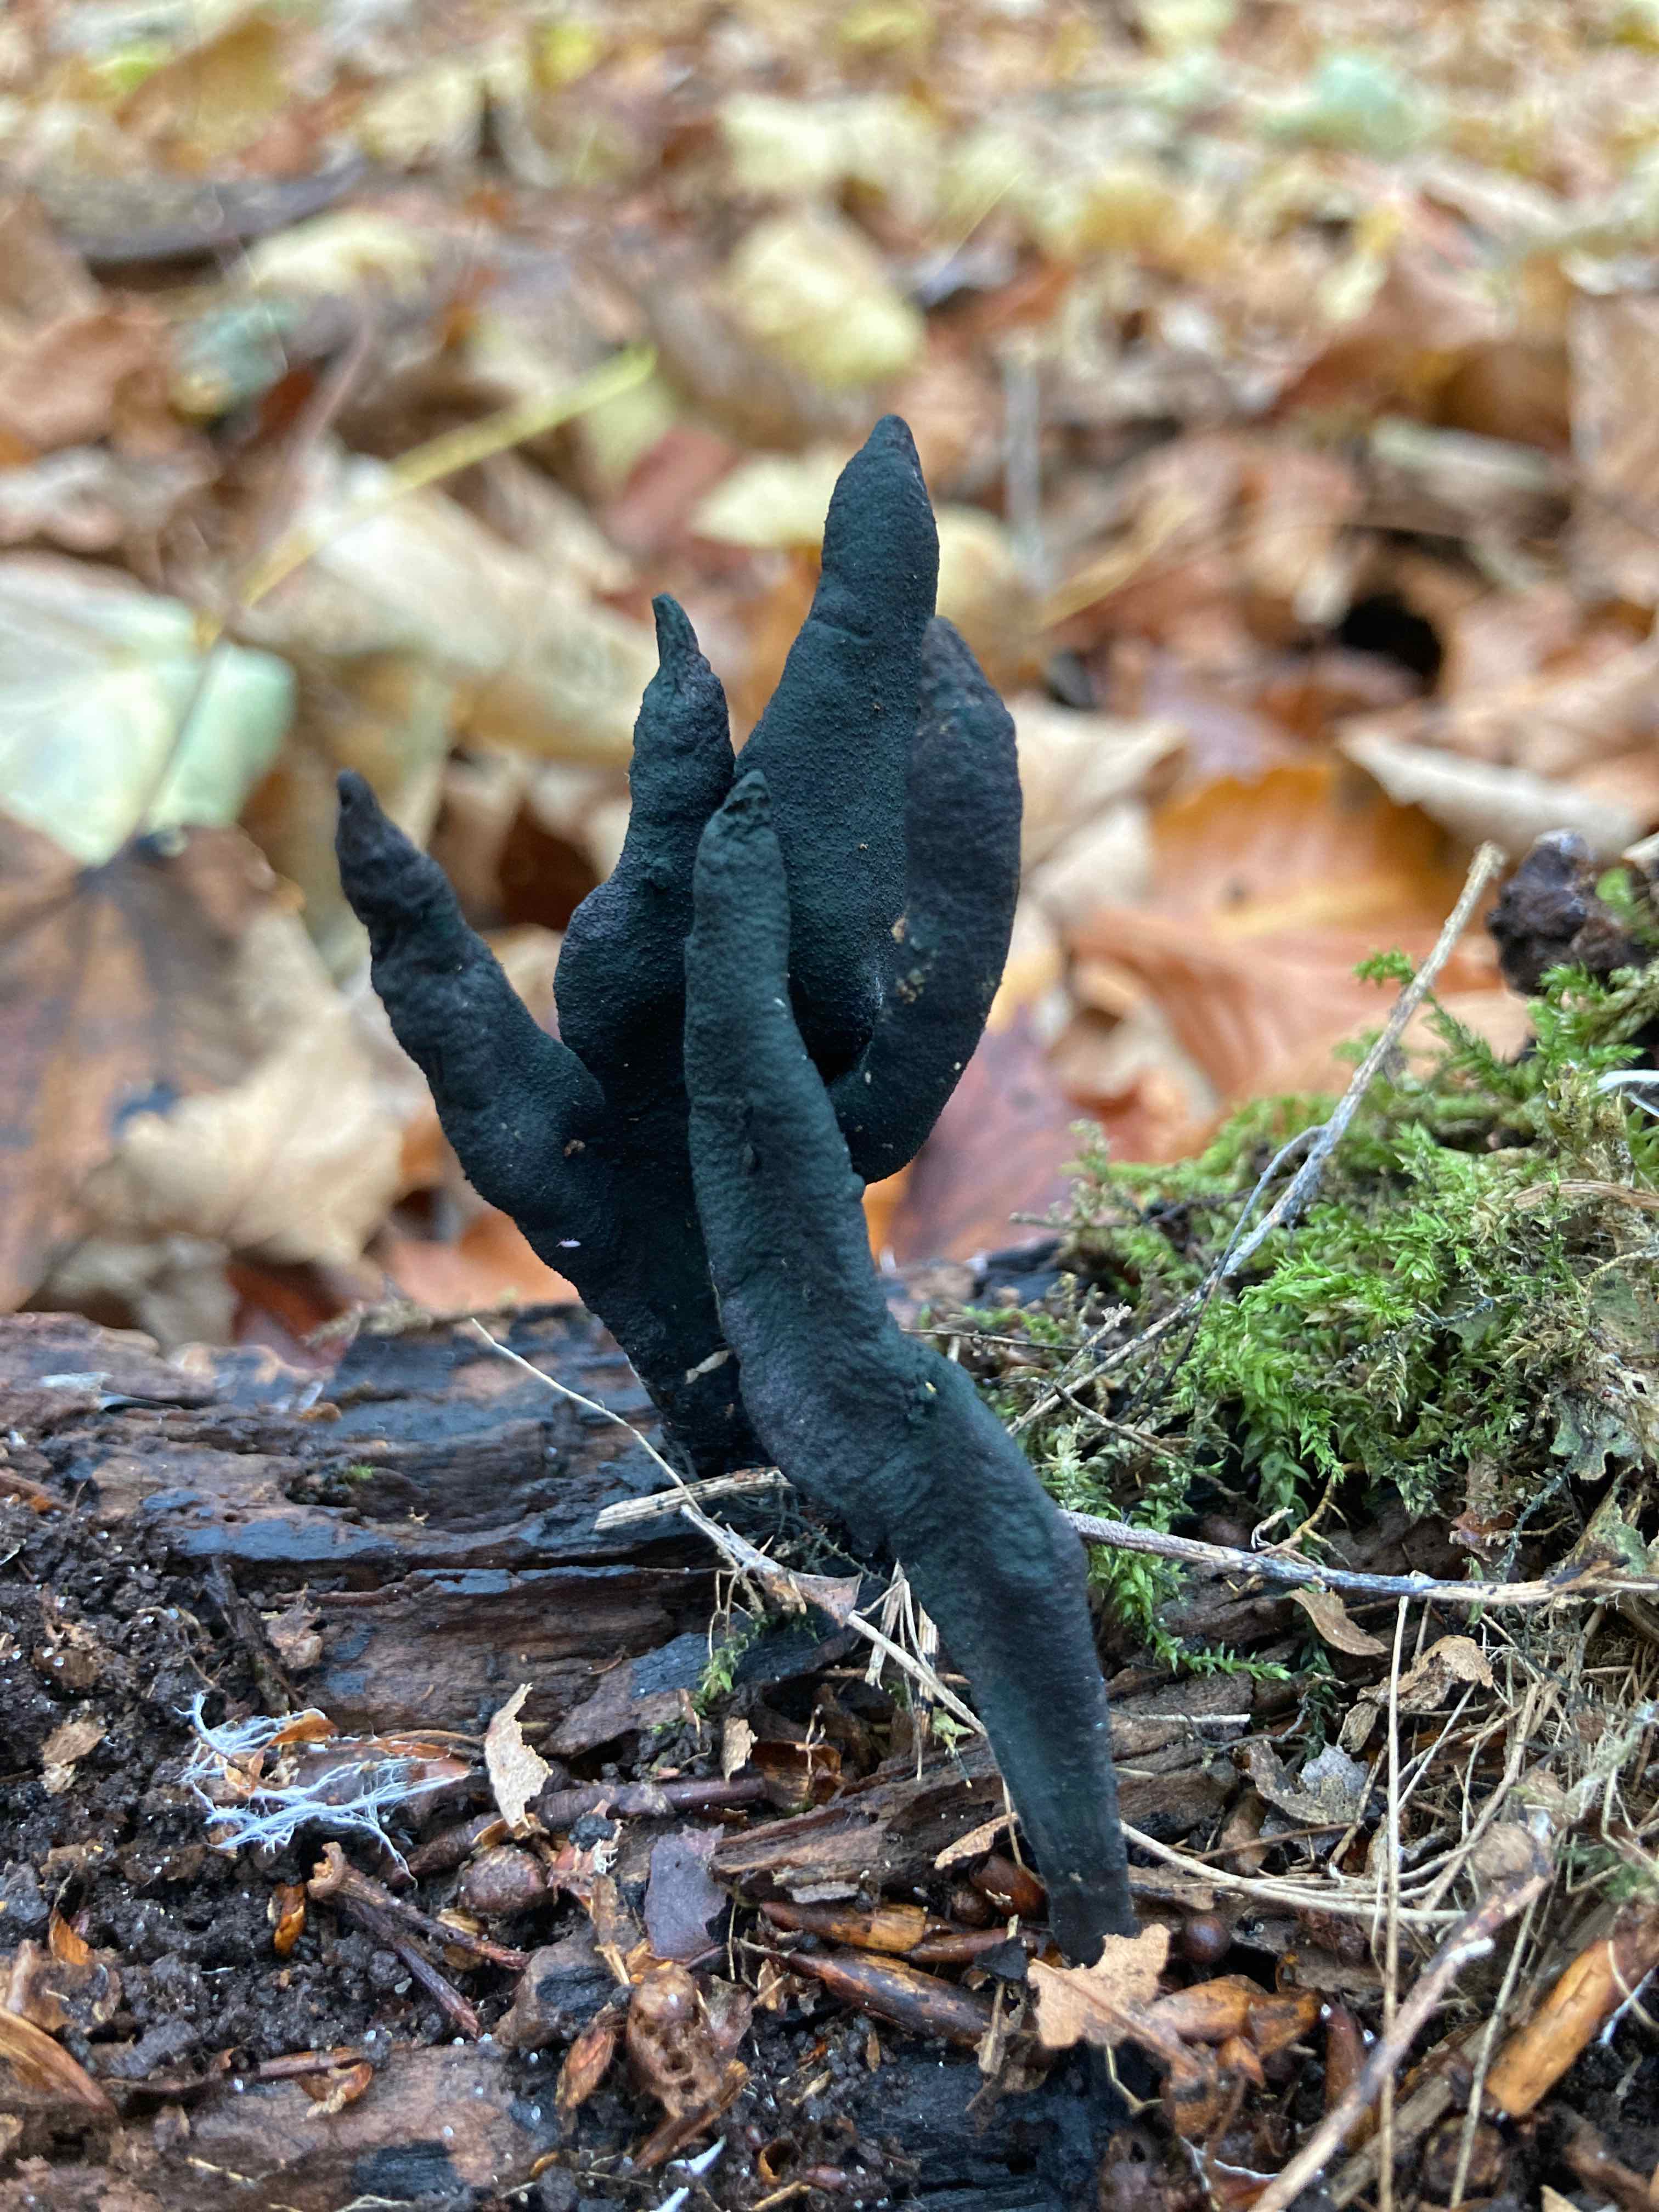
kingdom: Fungi
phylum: Ascomycota
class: Sordariomycetes
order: Xylariales
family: Xylariaceae
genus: Xylaria
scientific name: Xylaria longipes
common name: slank stødsvamp
